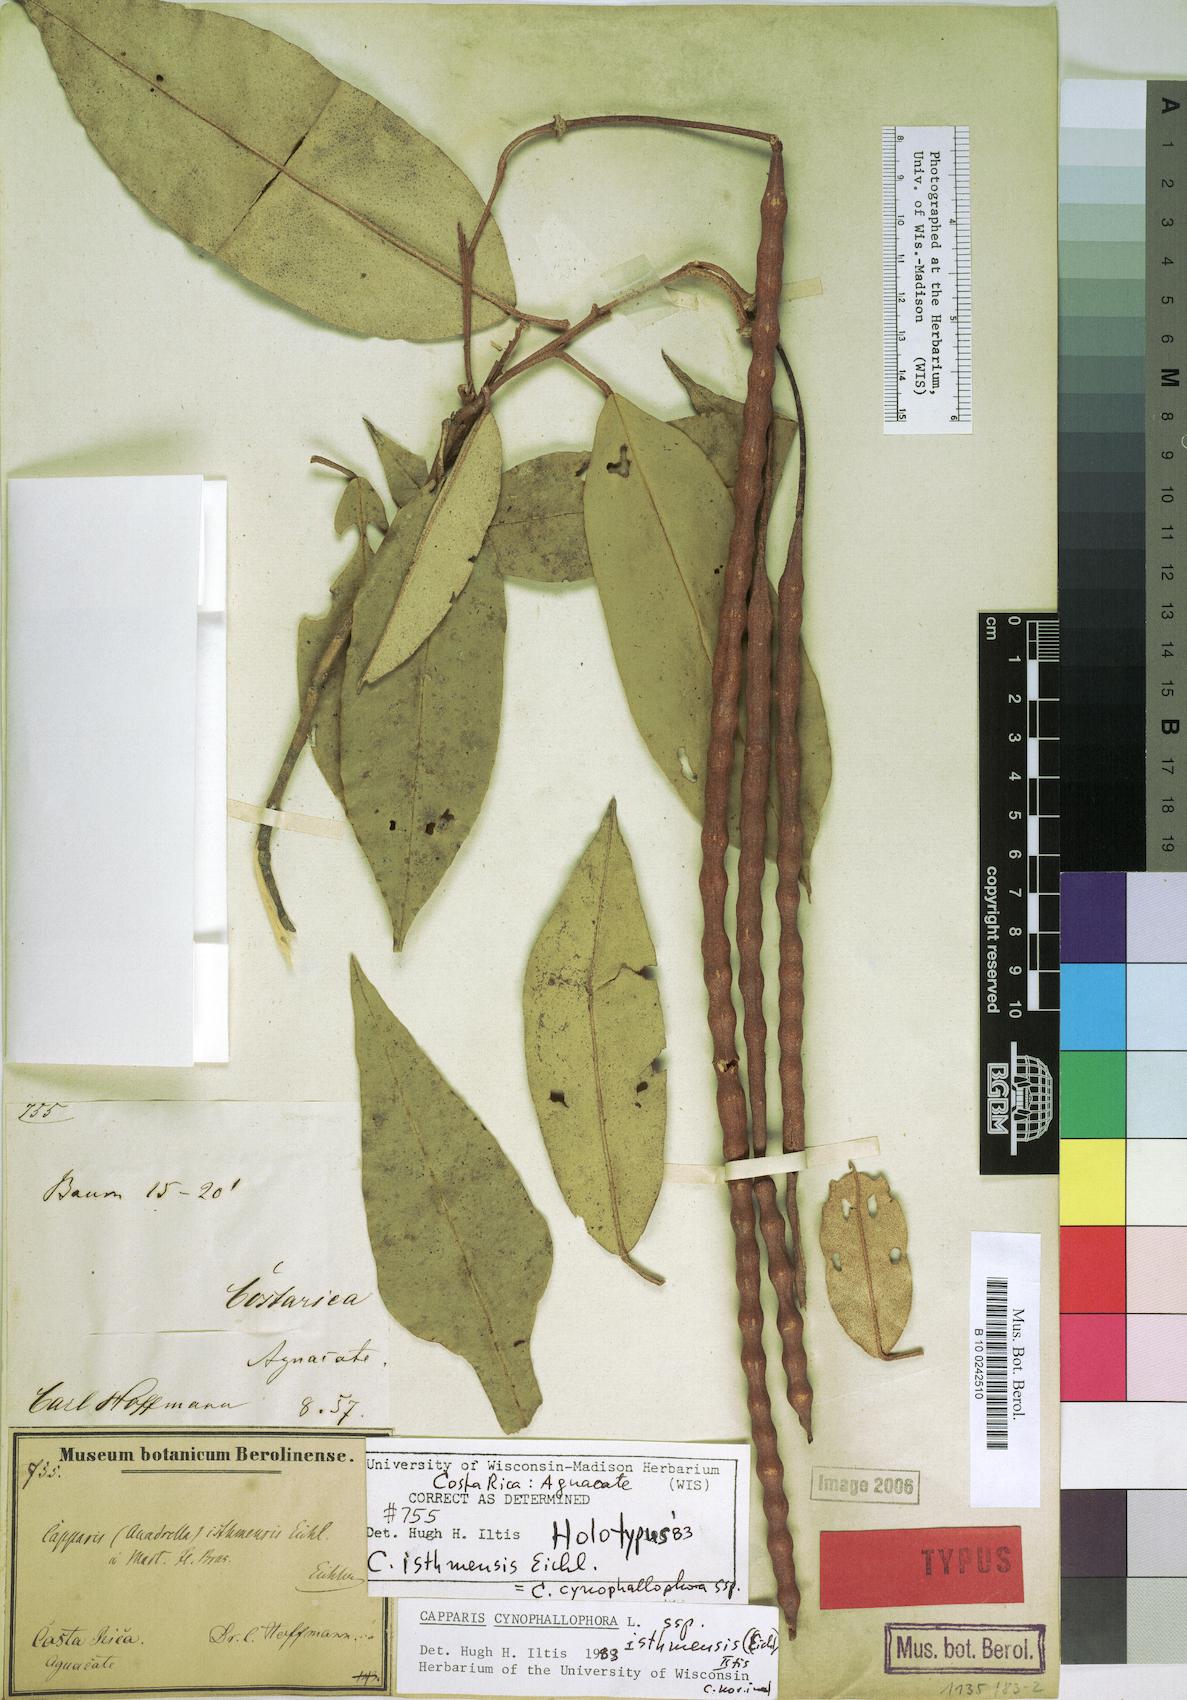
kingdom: Plantae
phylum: Tracheophyta
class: Magnoliopsida
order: Brassicales
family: Capparaceae
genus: Quadrella
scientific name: Quadrella cynophallophora
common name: Black willow
